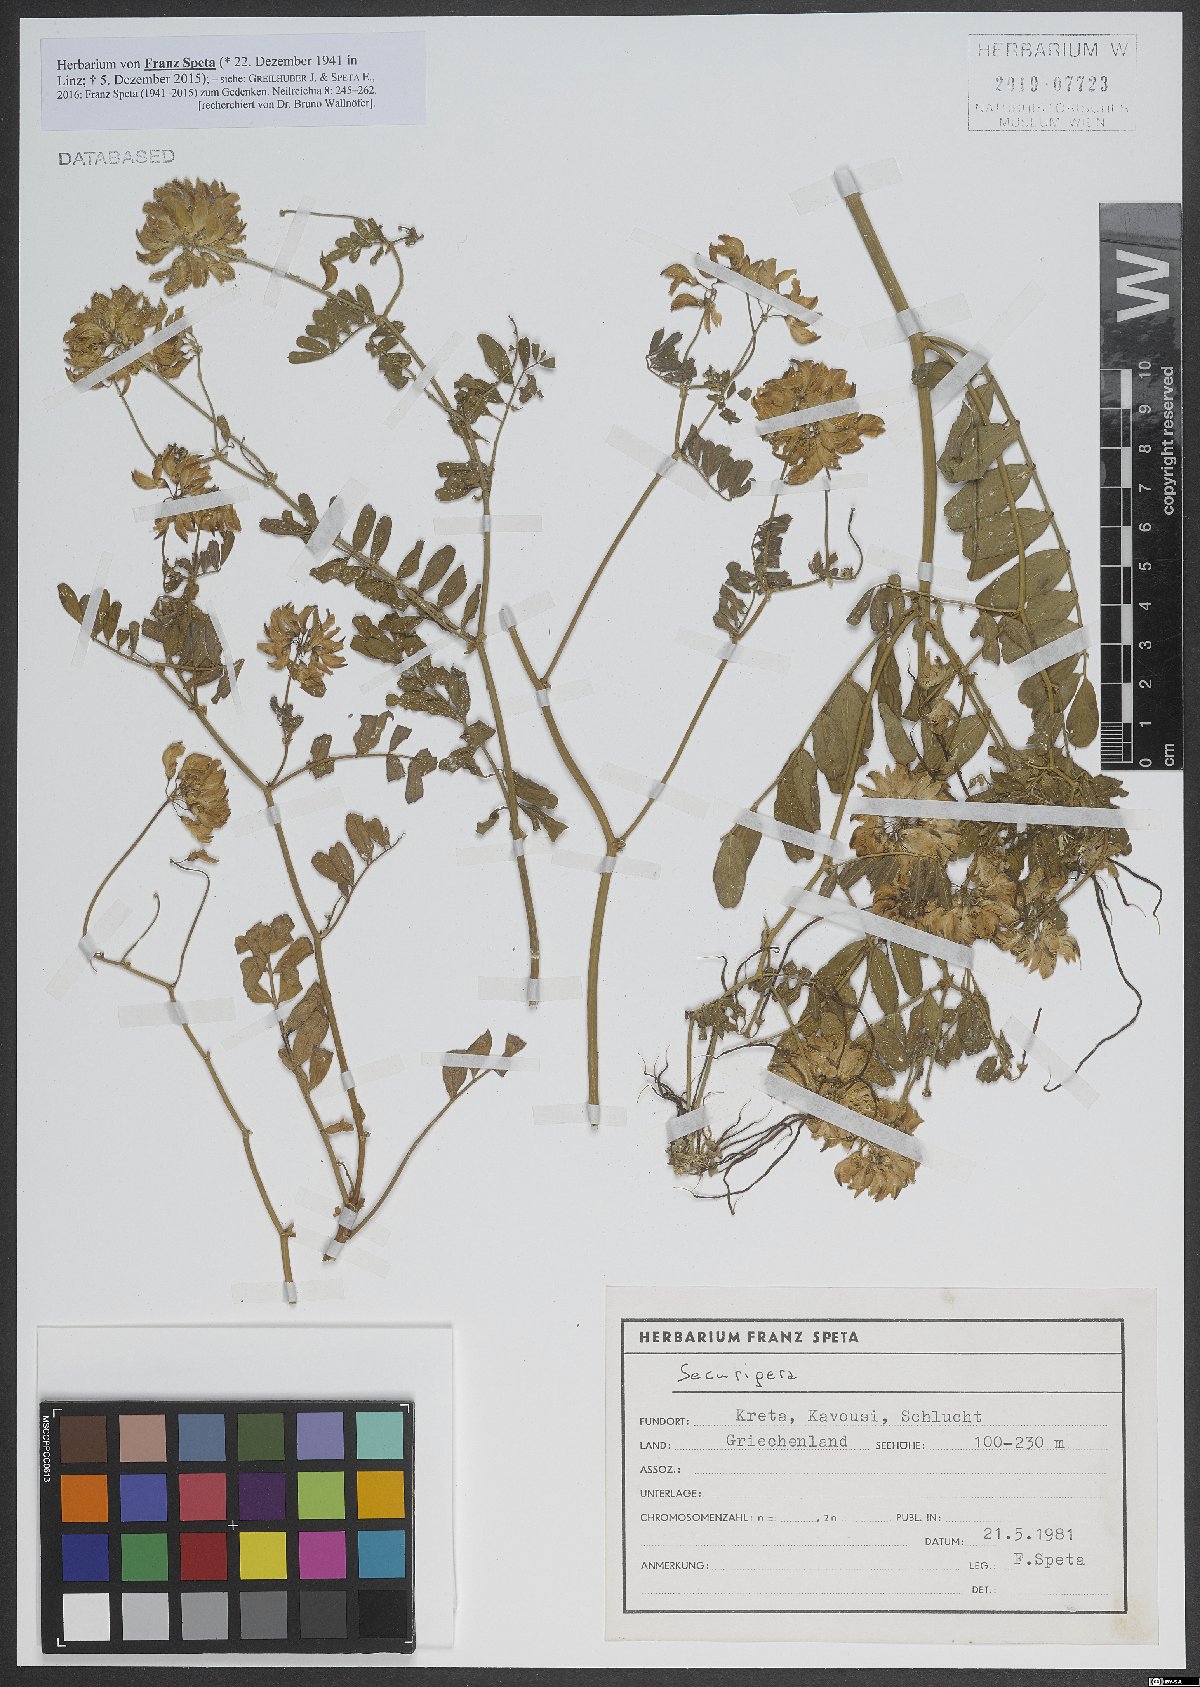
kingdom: Animalia
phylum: Arthropoda
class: Insecta
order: Orthoptera
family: Romaleidae
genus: Securigera
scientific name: Securigera
